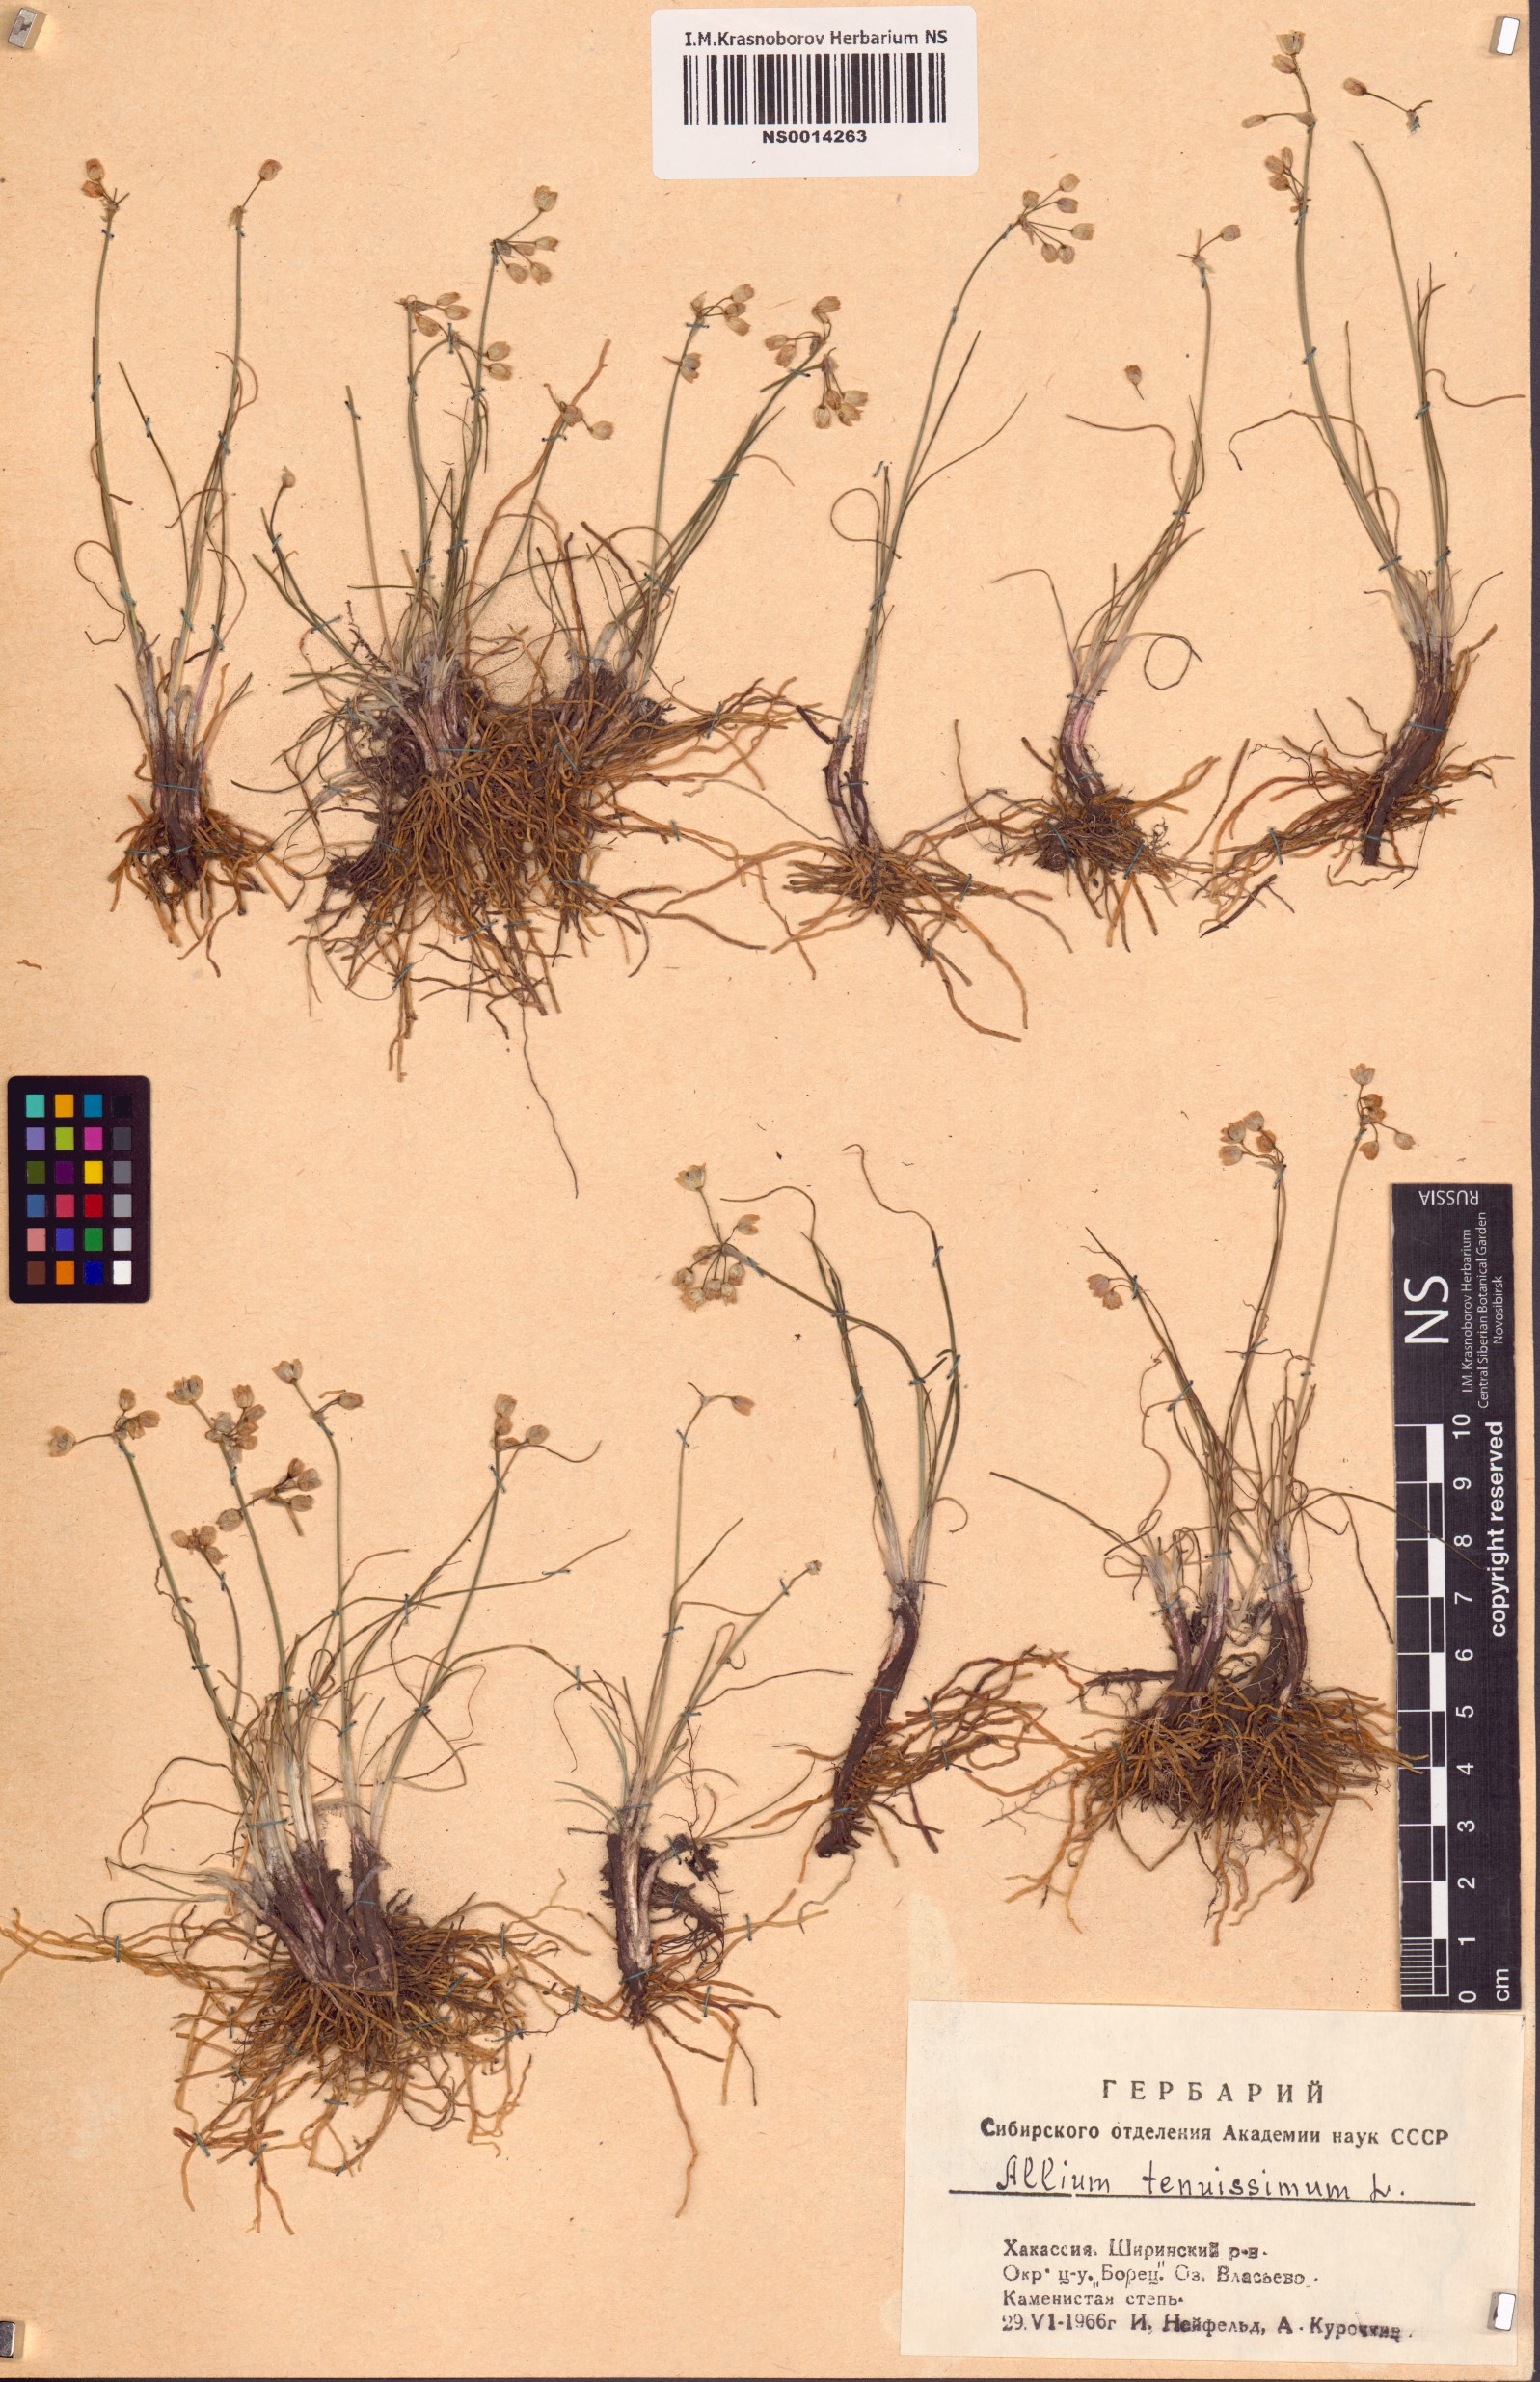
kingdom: Plantae
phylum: Tracheophyta
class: Liliopsida
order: Asparagales
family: Amaryllidaceae
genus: Allium
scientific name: Allium tenuissimum
